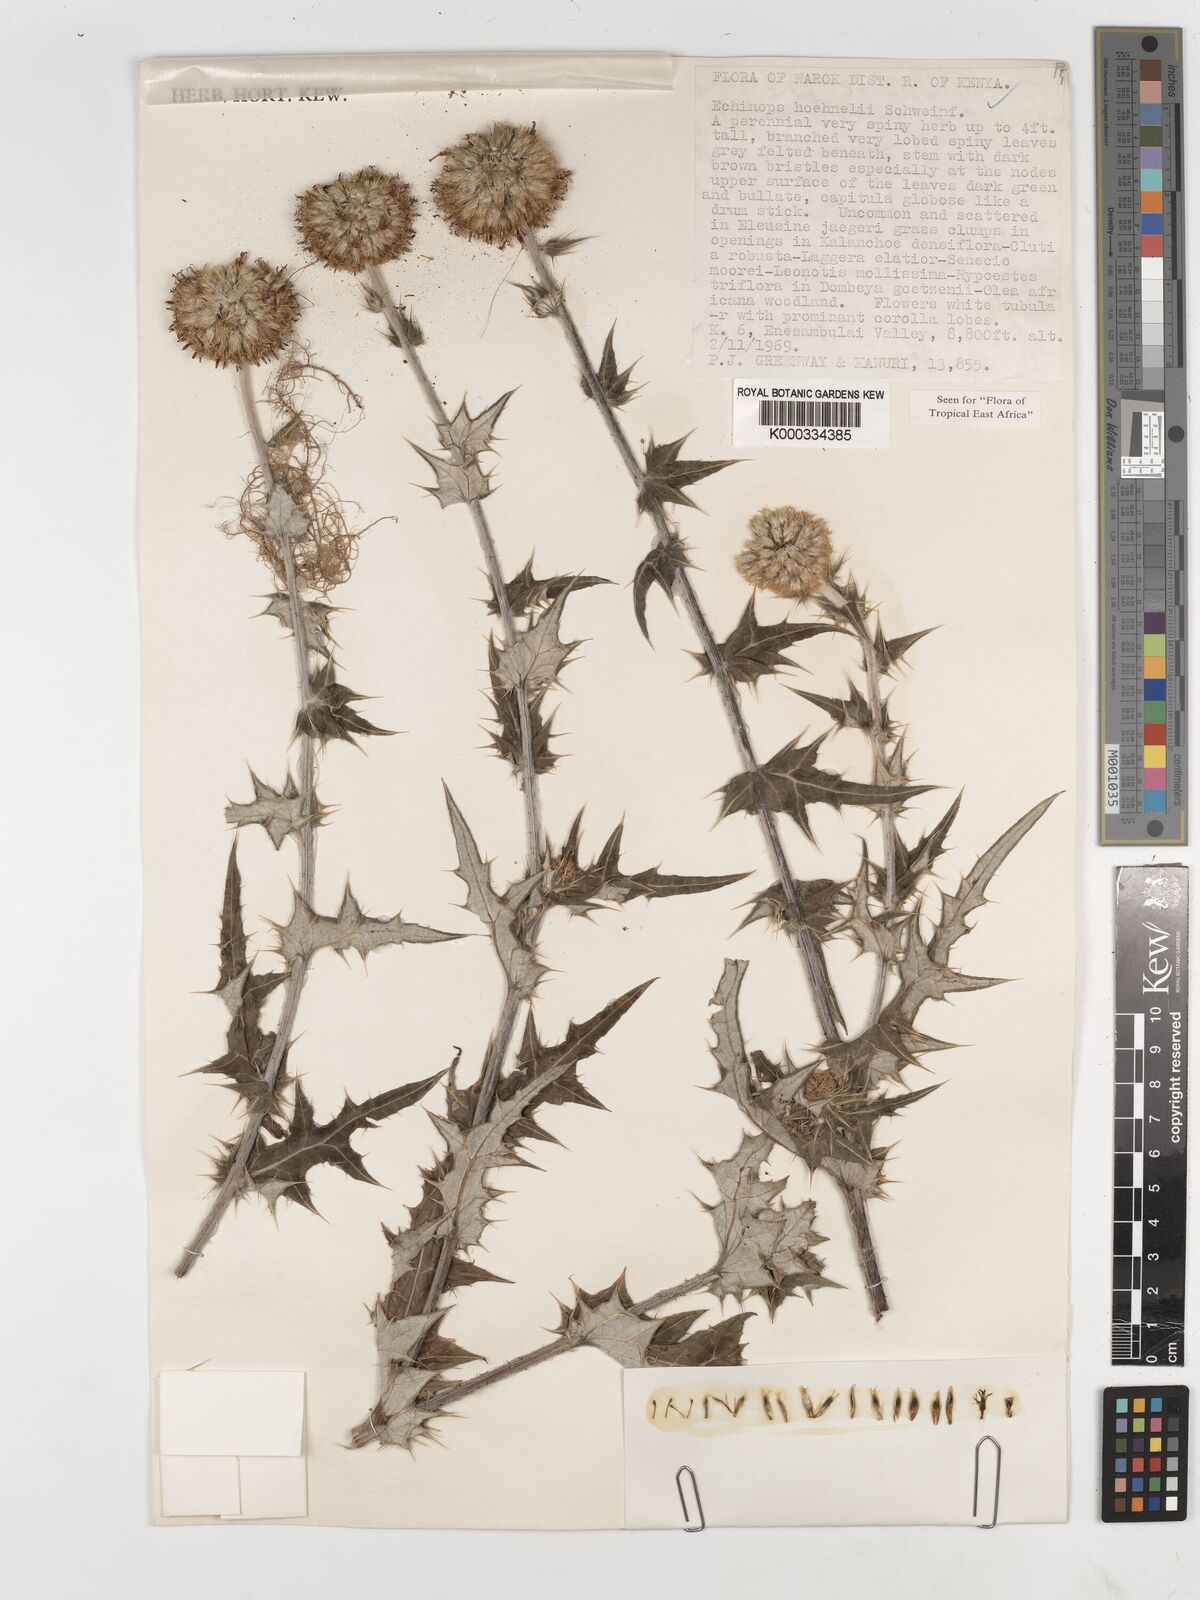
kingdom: Plantae
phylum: Tracheophyta
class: Magnoliopsida
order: Asterales
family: Asteraceae
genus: Echinops
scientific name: Echinops hoehnelii
